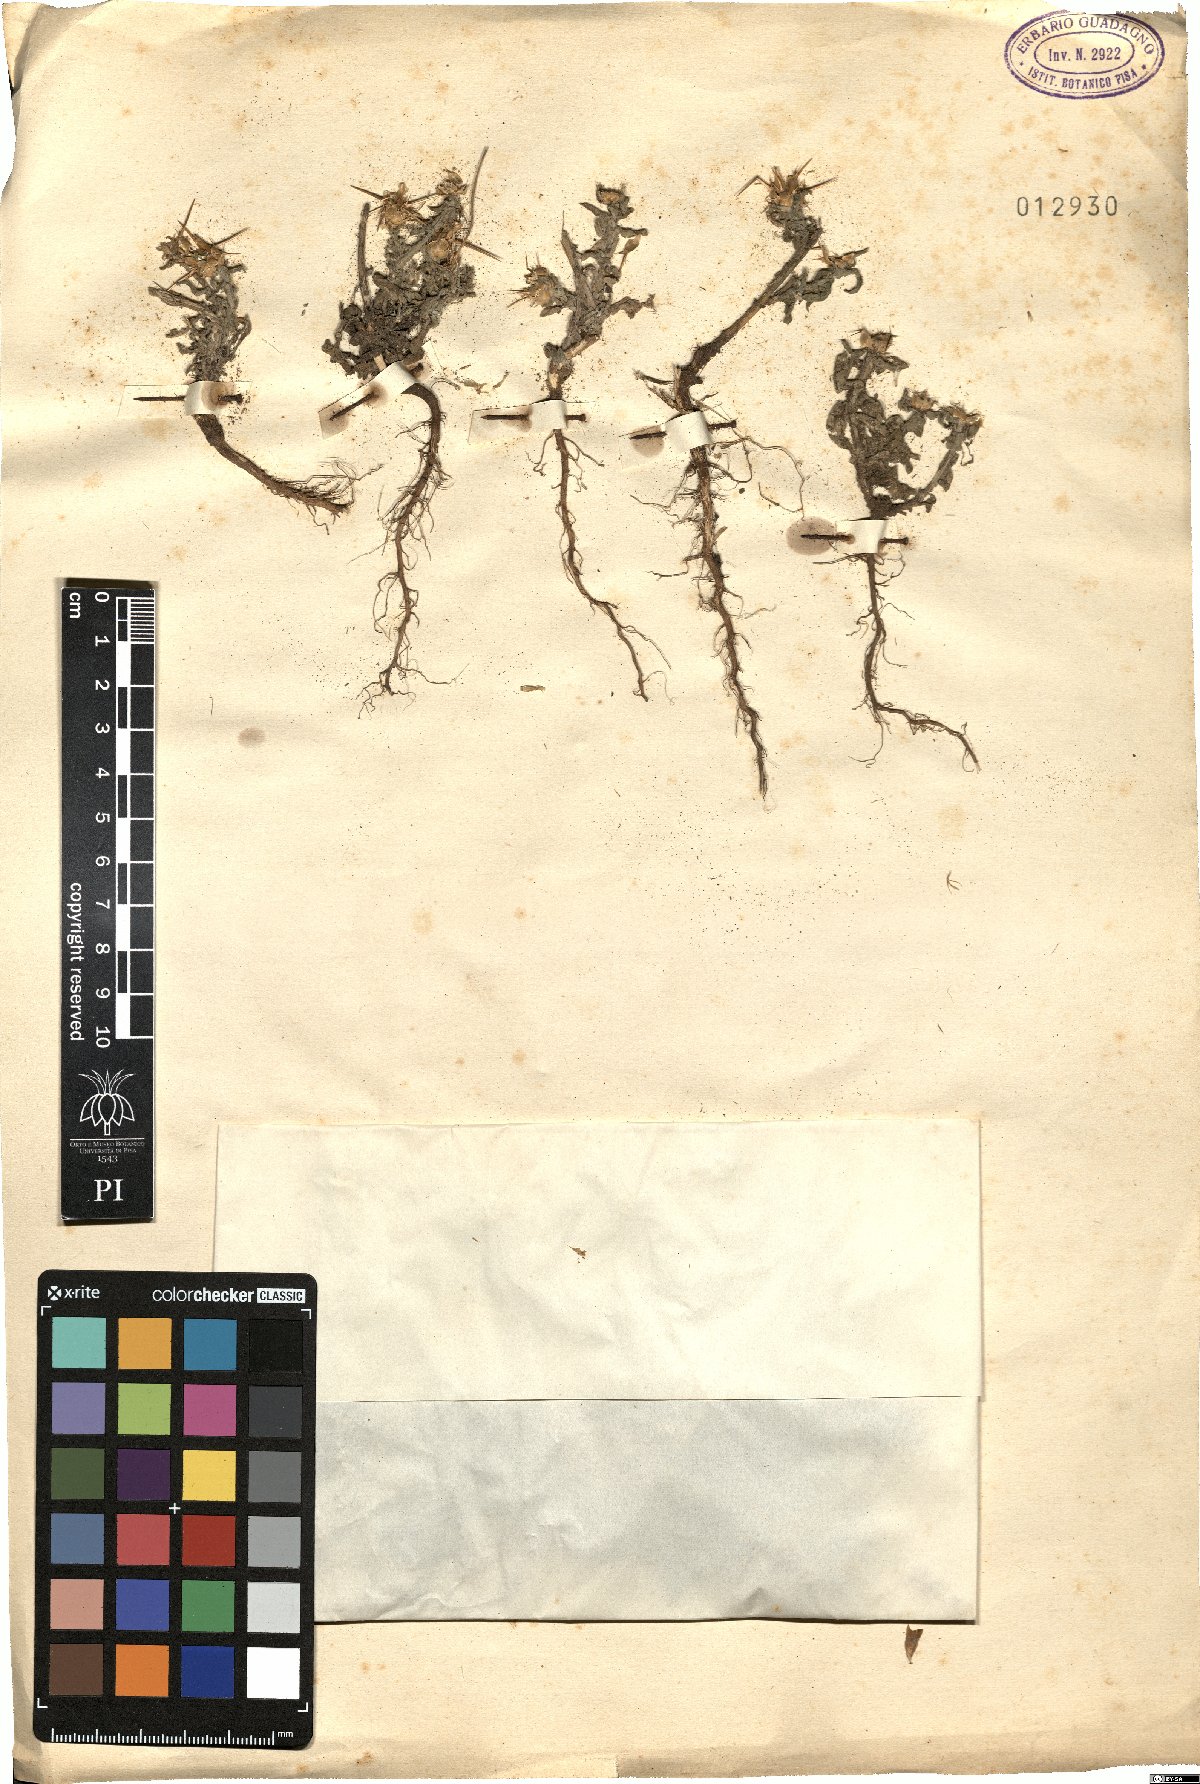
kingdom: Plantae
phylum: Tracheophyta
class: Magnoliopsida
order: Asterales
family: Asteraceae
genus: Centaurea
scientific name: Centaurea
